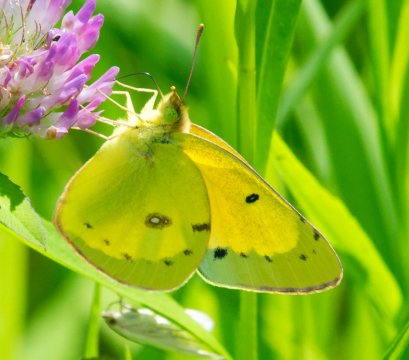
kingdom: Animalia
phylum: Arthropoda
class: Insecta
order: Lepidoptera
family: Pieridae
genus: Colias
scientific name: Colias eurytheme
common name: Orange Sulphur
